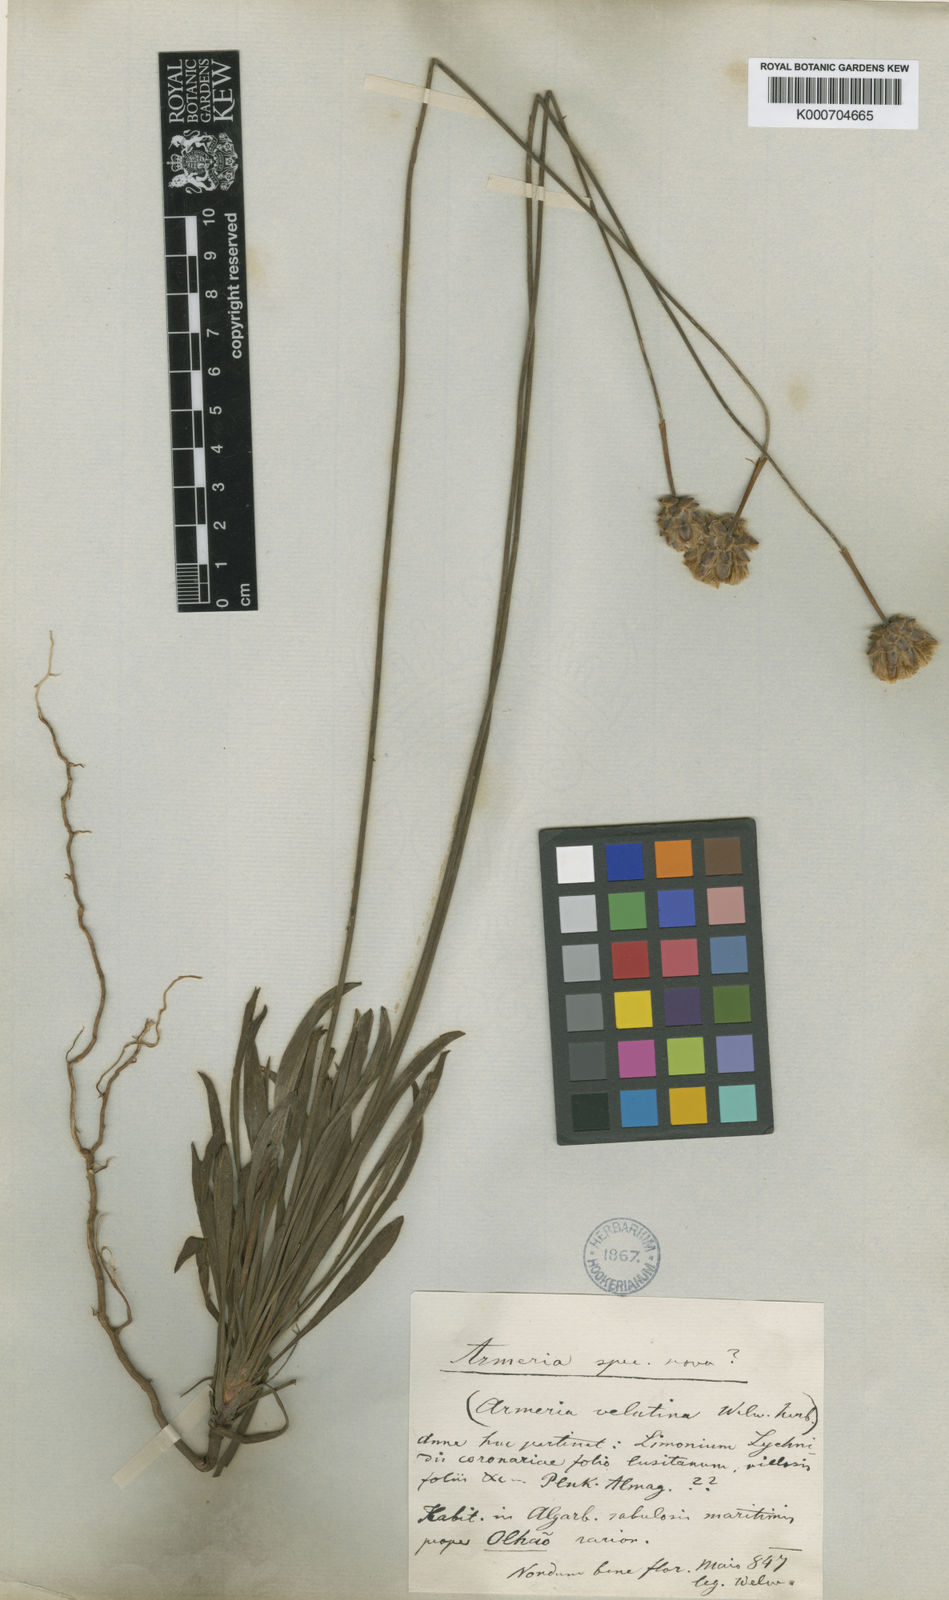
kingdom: Plantae
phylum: Tracheophyta
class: Magnoliopsida
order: Caryophyllales
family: Plumbaginaceae
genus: Armeria
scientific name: Armeria velutina
